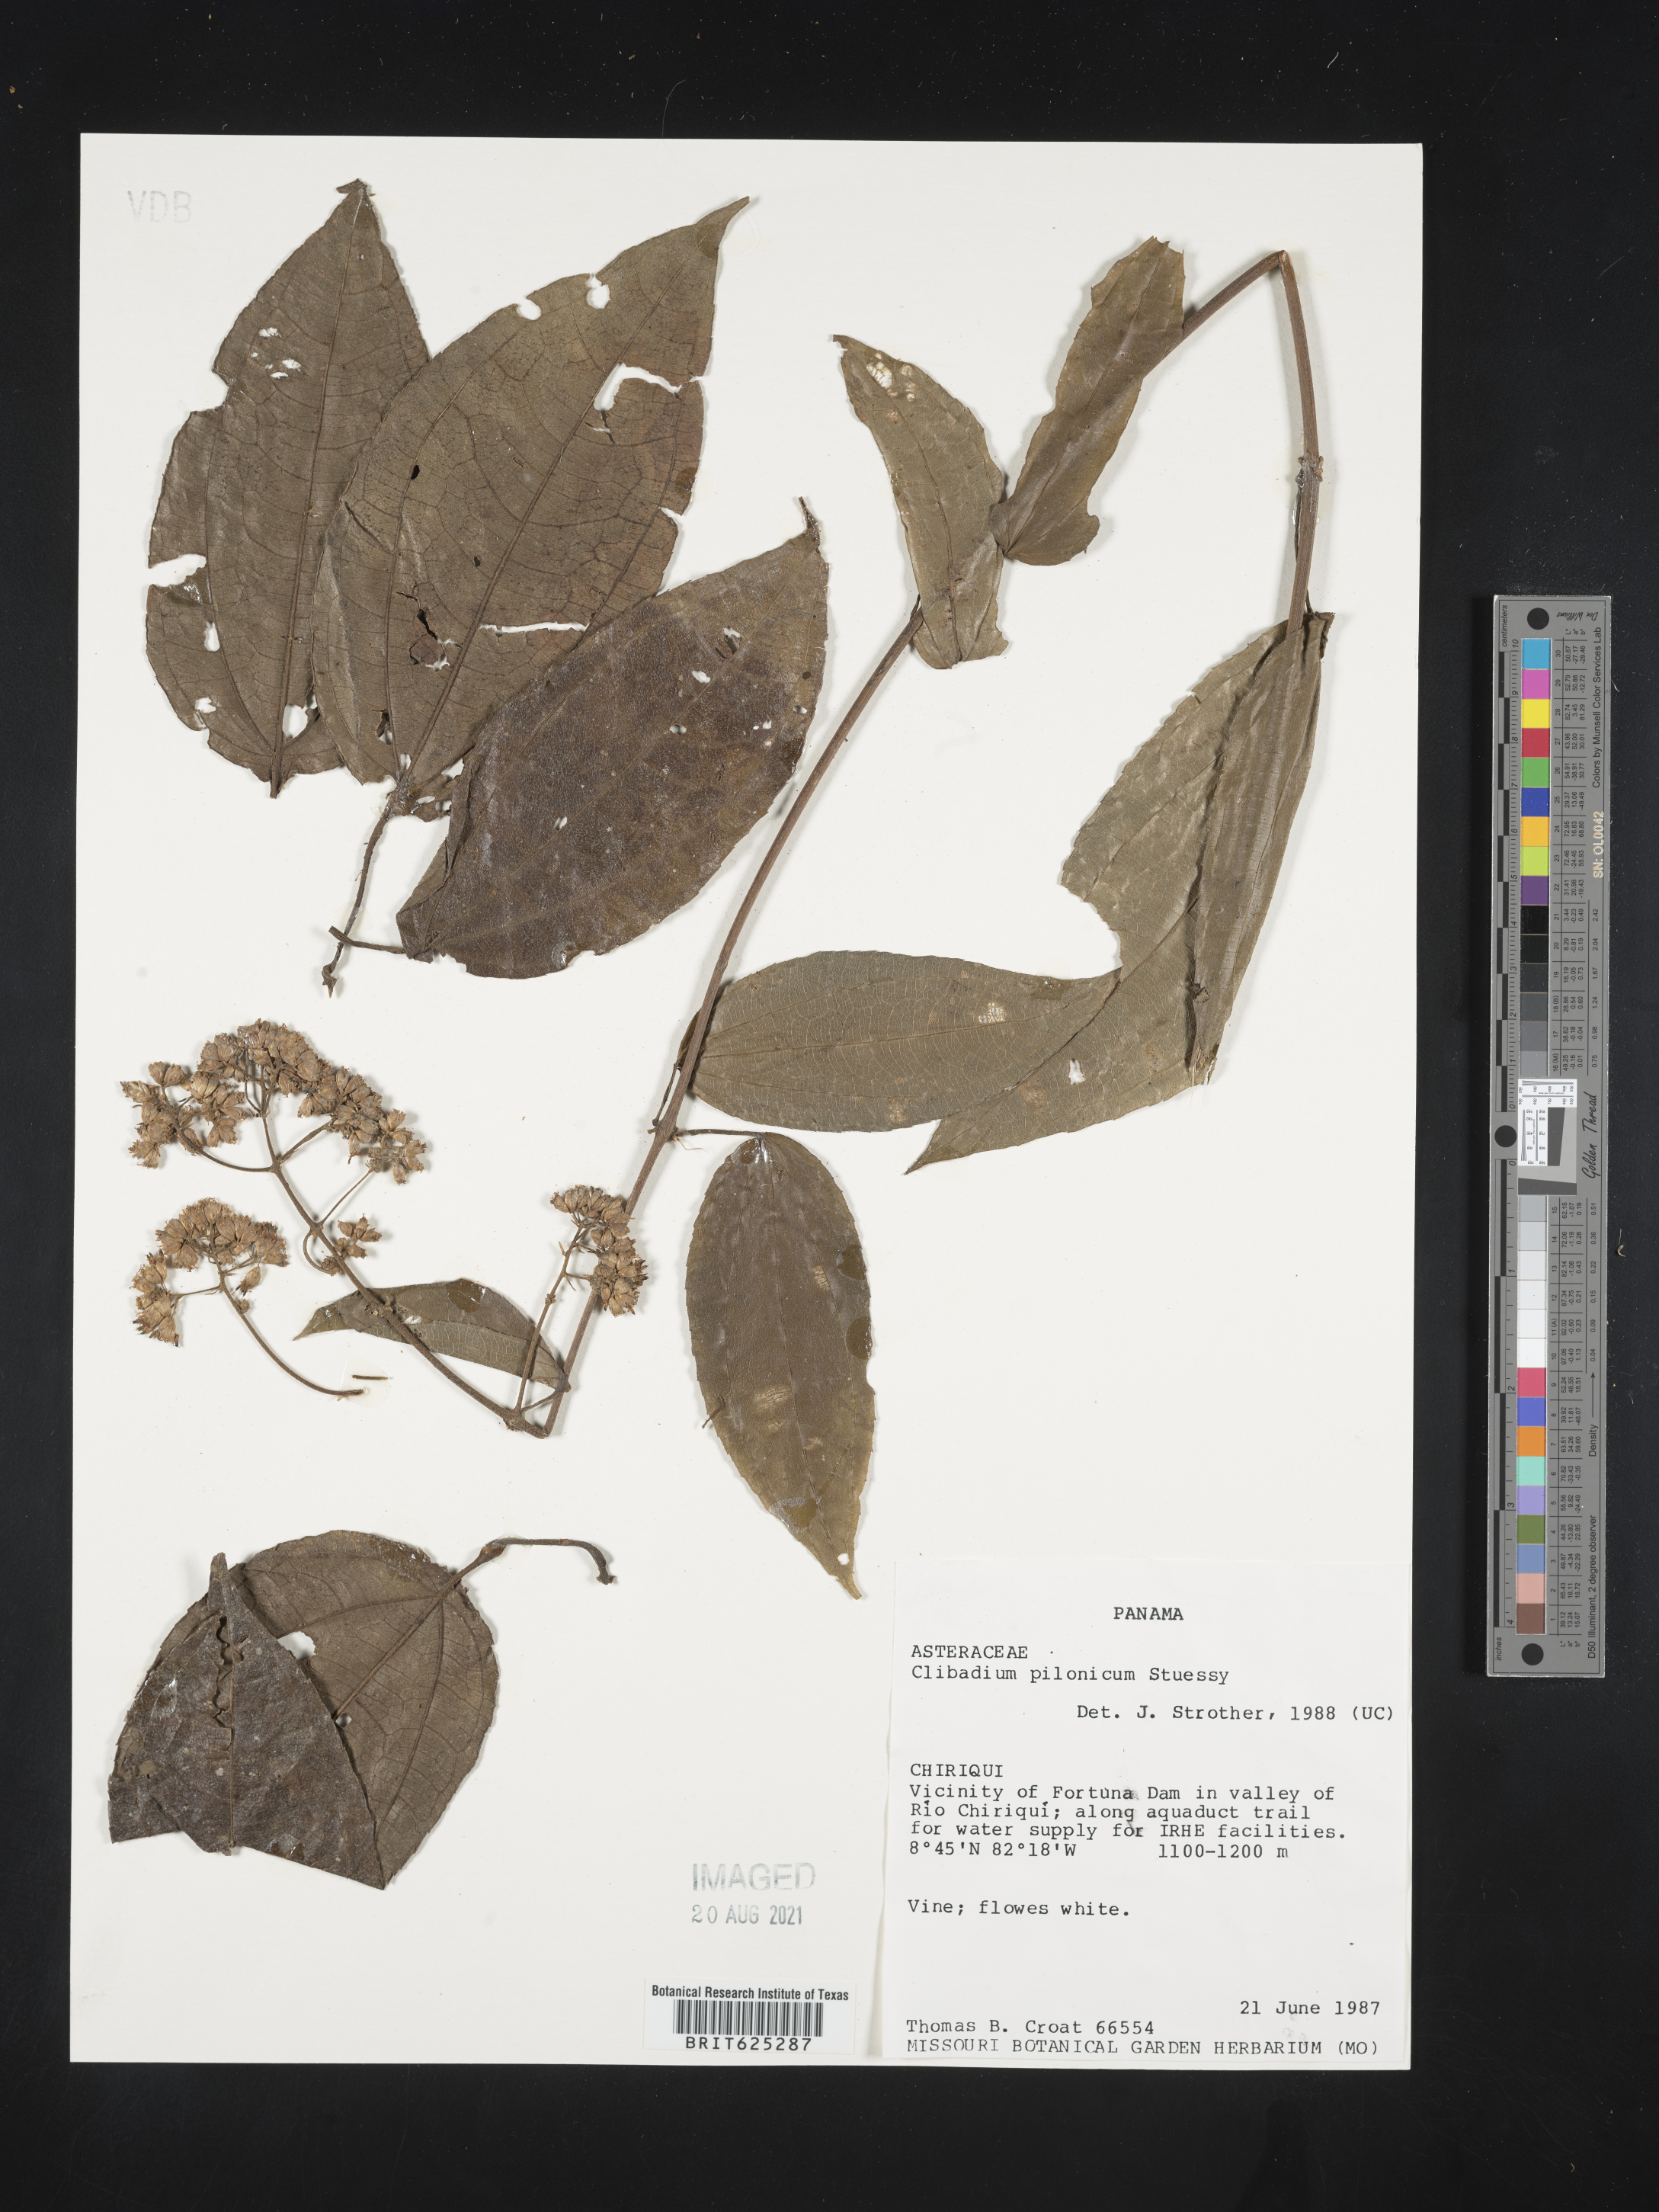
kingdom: Plantae
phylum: Tracheophyta
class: Magnoliopsida
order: Asterales
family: Asteraceae
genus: Clibadium
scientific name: Clibadium anceps
